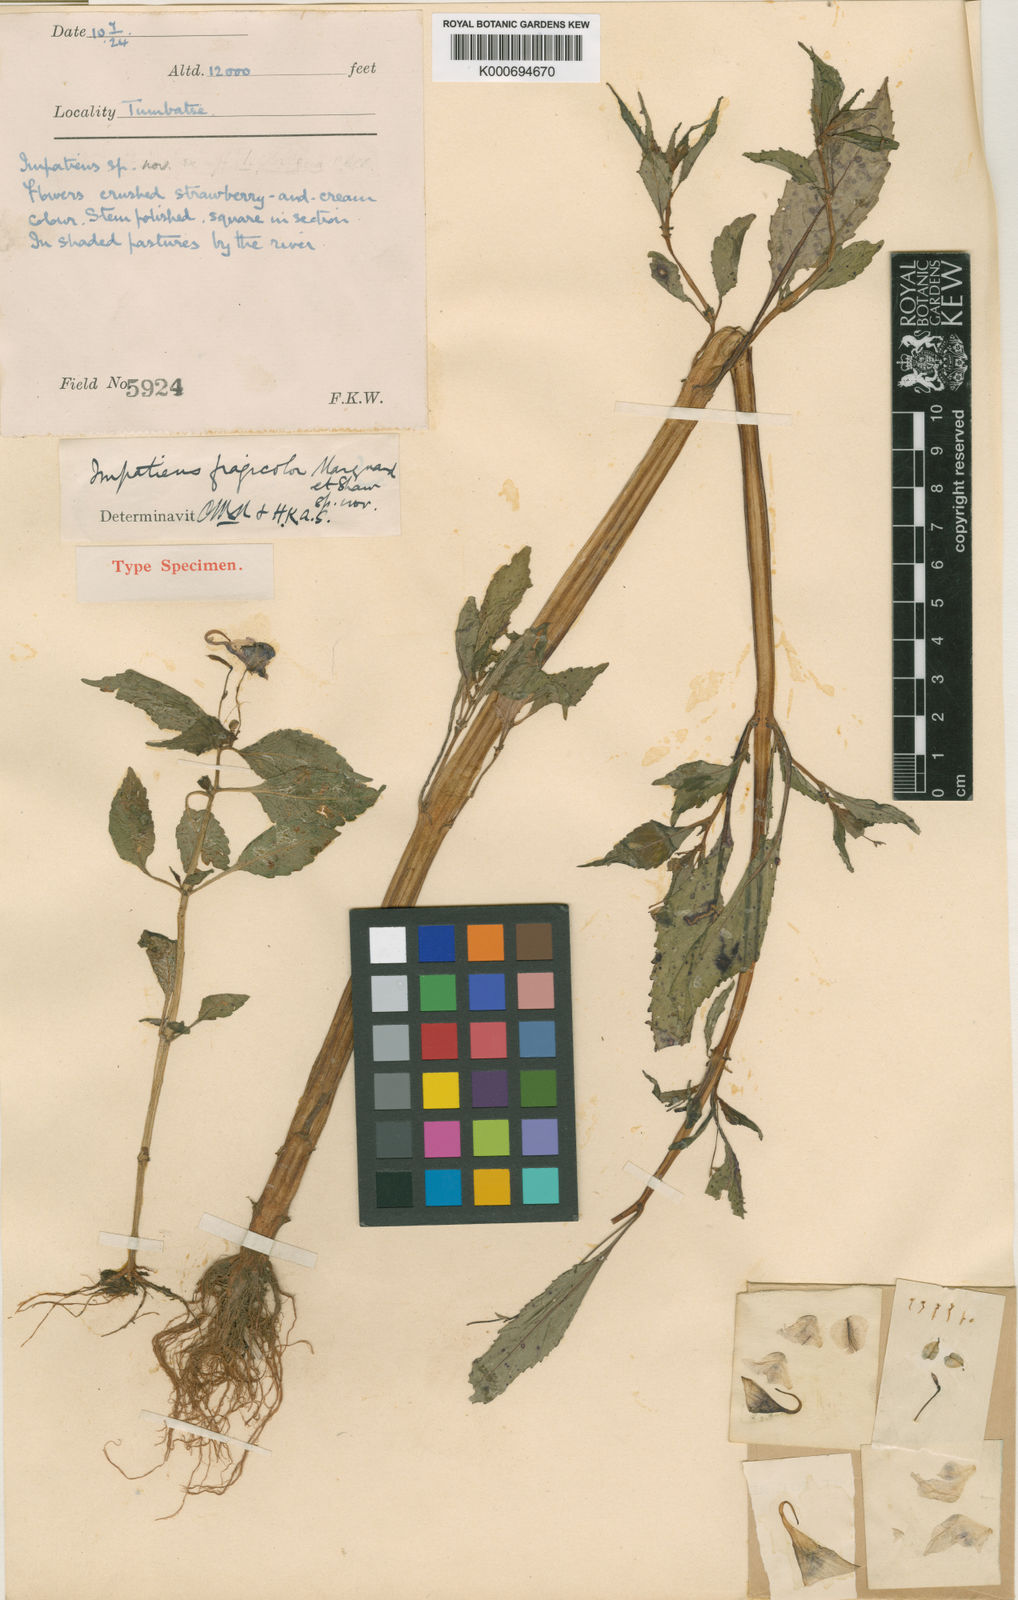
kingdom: Plantae
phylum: Tracheophyta
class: Magnoliopsida
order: Ericales
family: Balsaminaceae
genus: Impatiens
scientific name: Impatiens fragicolor
